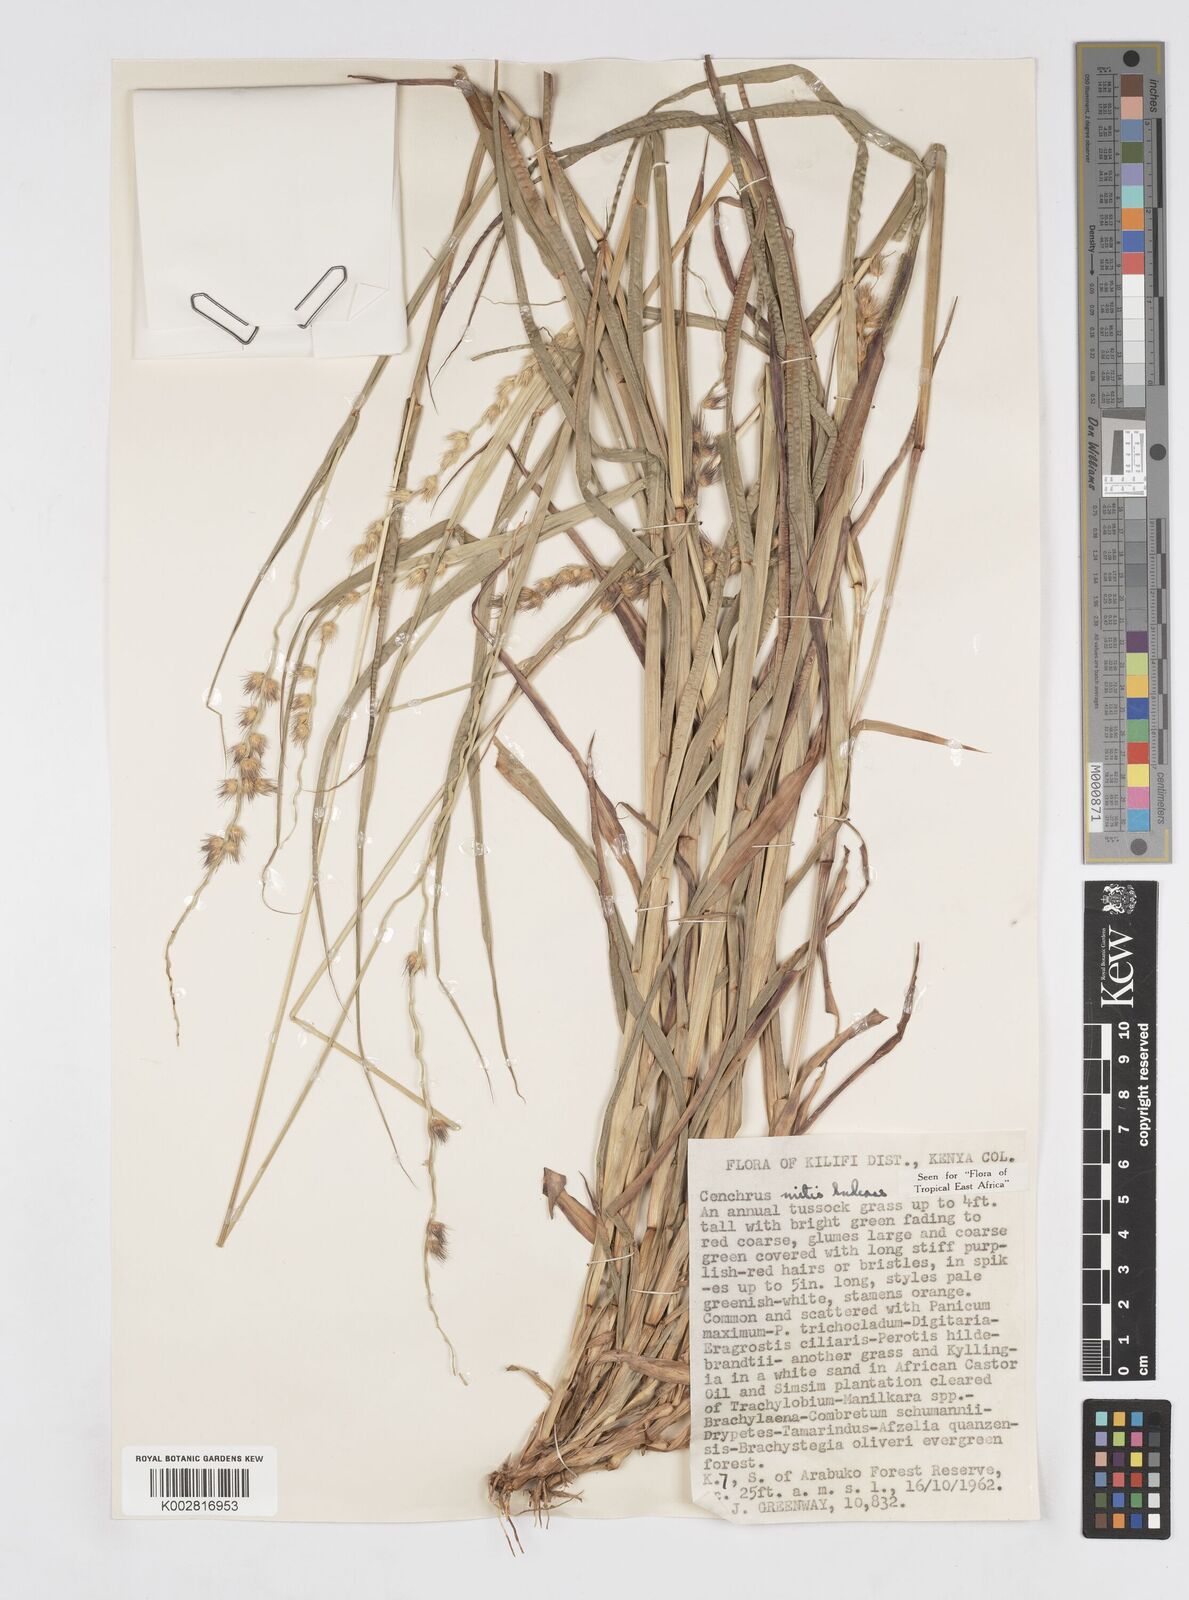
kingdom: Plantae
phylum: Tracheophyta
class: Liliopsida
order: Poales
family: Poaceae
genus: Cenchrus
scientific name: Cenchrus mitis
